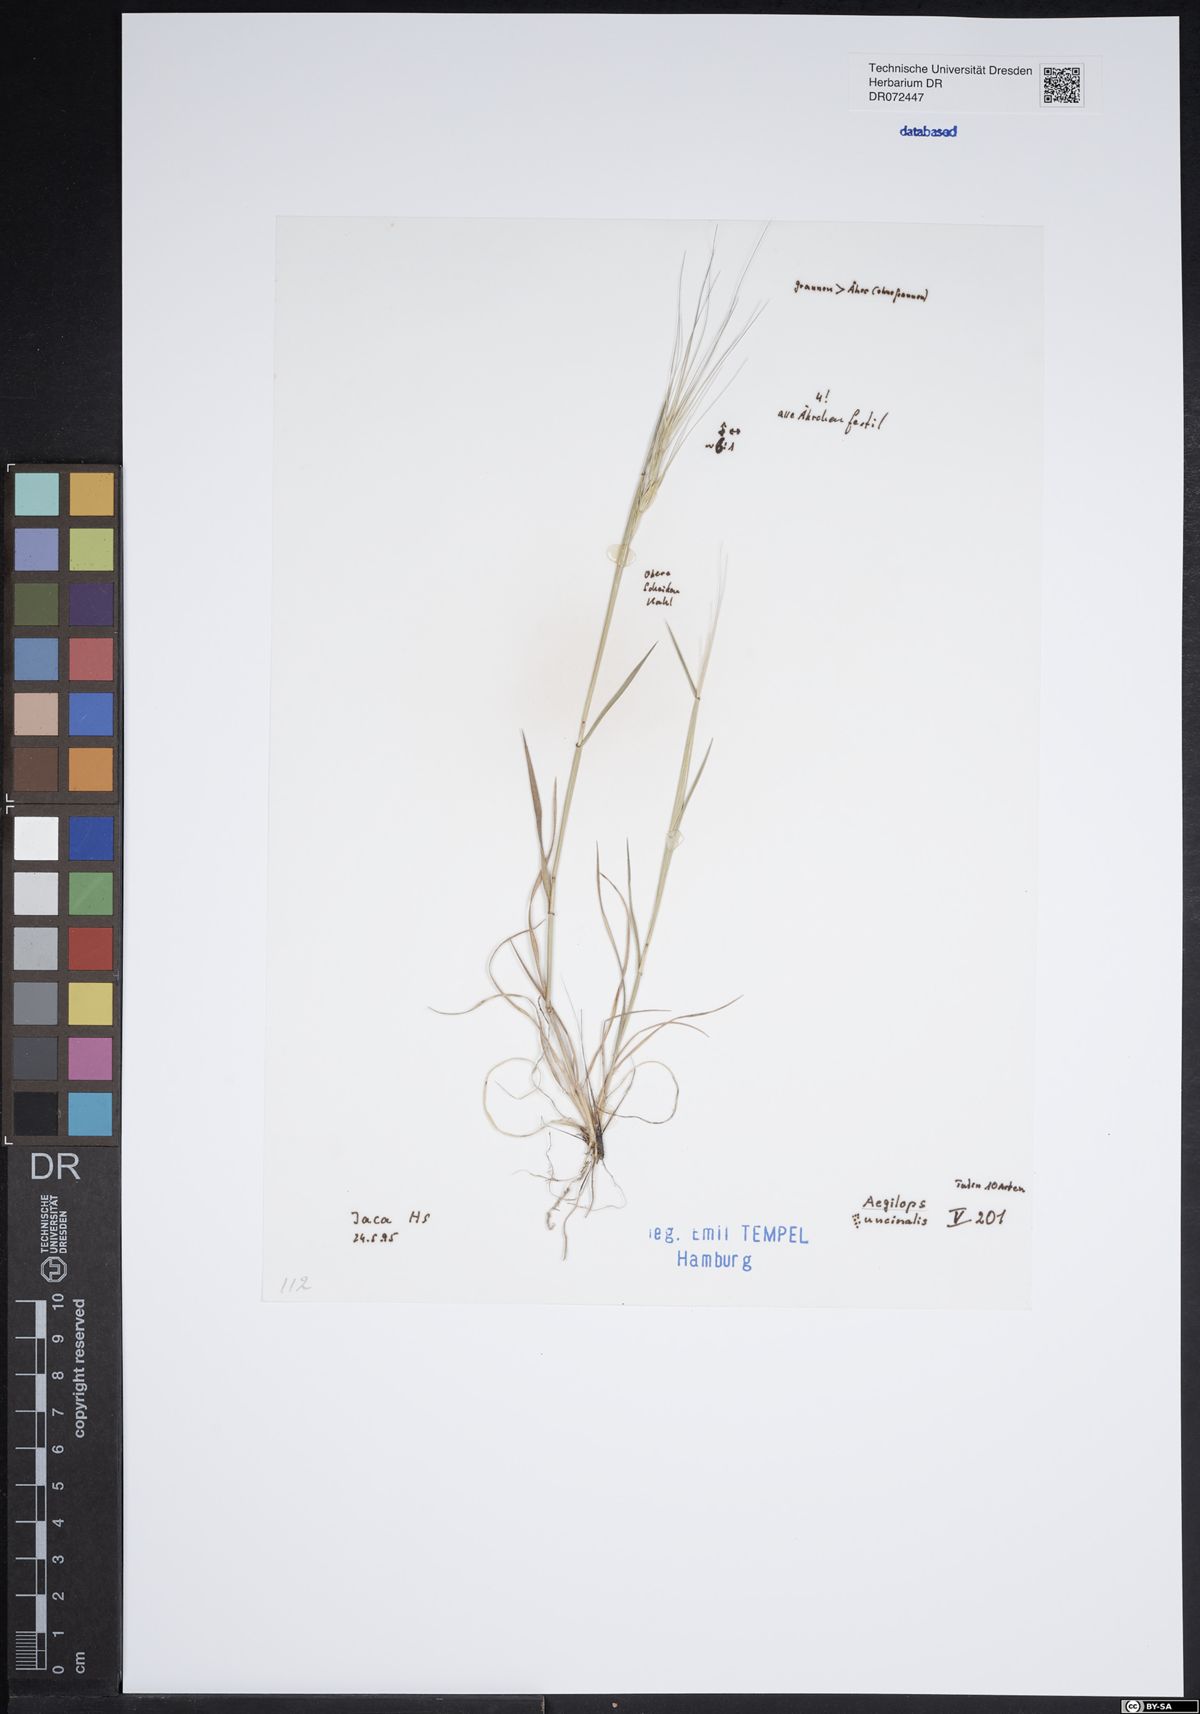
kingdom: Plantae
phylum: Tracheophyta
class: Liliopsida
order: Poales
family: Poaceae
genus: Aegilops
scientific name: Aegilops
